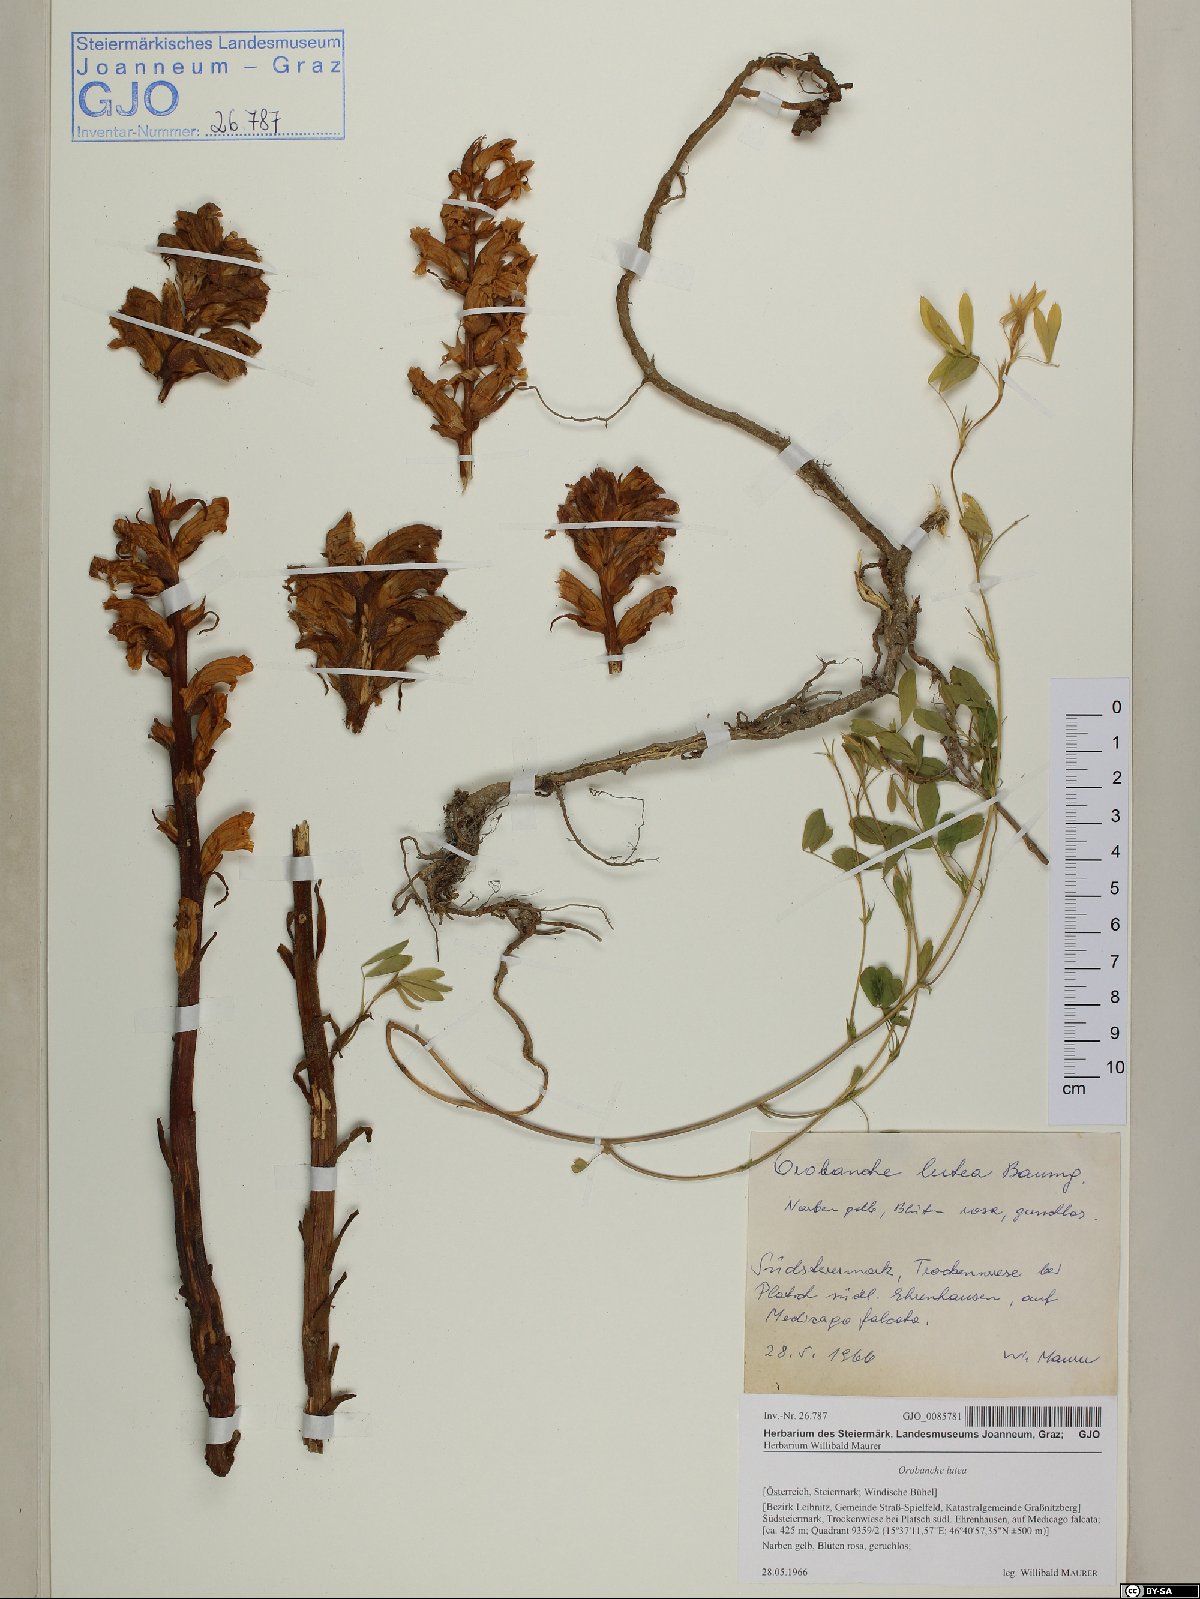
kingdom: Plantae
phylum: Tracheophyta
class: Magnoliopsida
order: Lamiales
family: Orobanchaceae
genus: Orobanche
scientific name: Orobanche lutea
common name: Yellow broomrape
